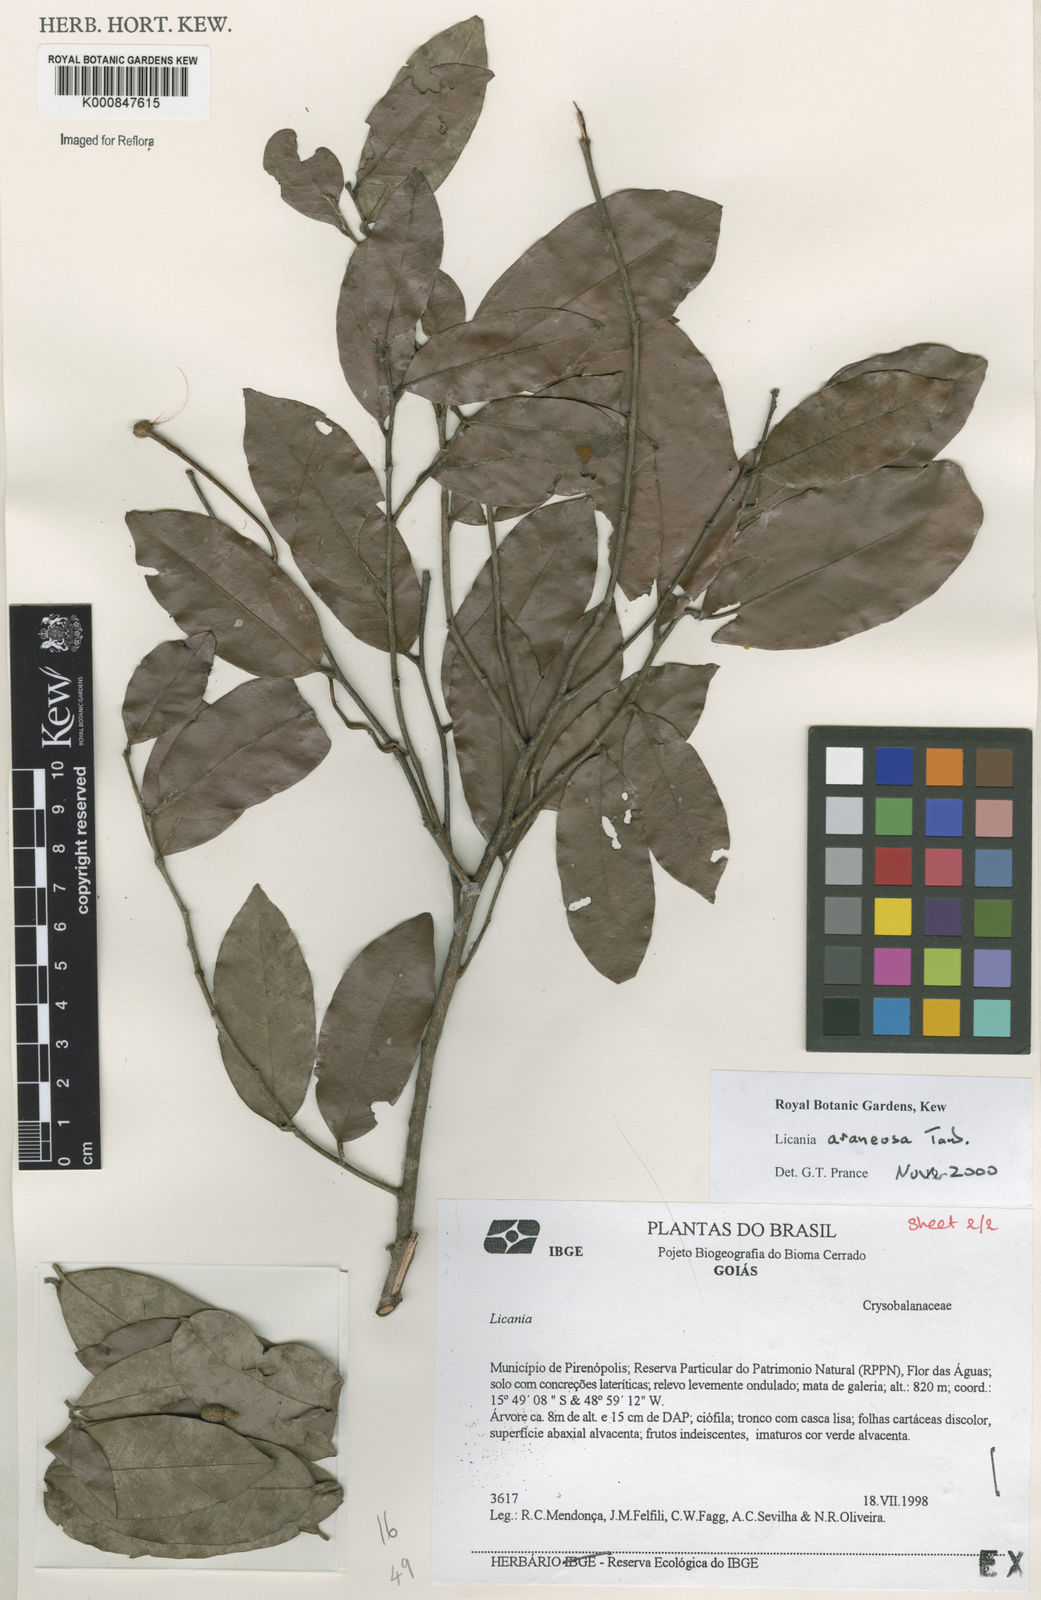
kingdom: Plantae
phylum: Tracheophyta
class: Magnoliopsida
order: Malpighiales
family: Chrysobalanaceae
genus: Moquilea
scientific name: Moquilea araneosa
